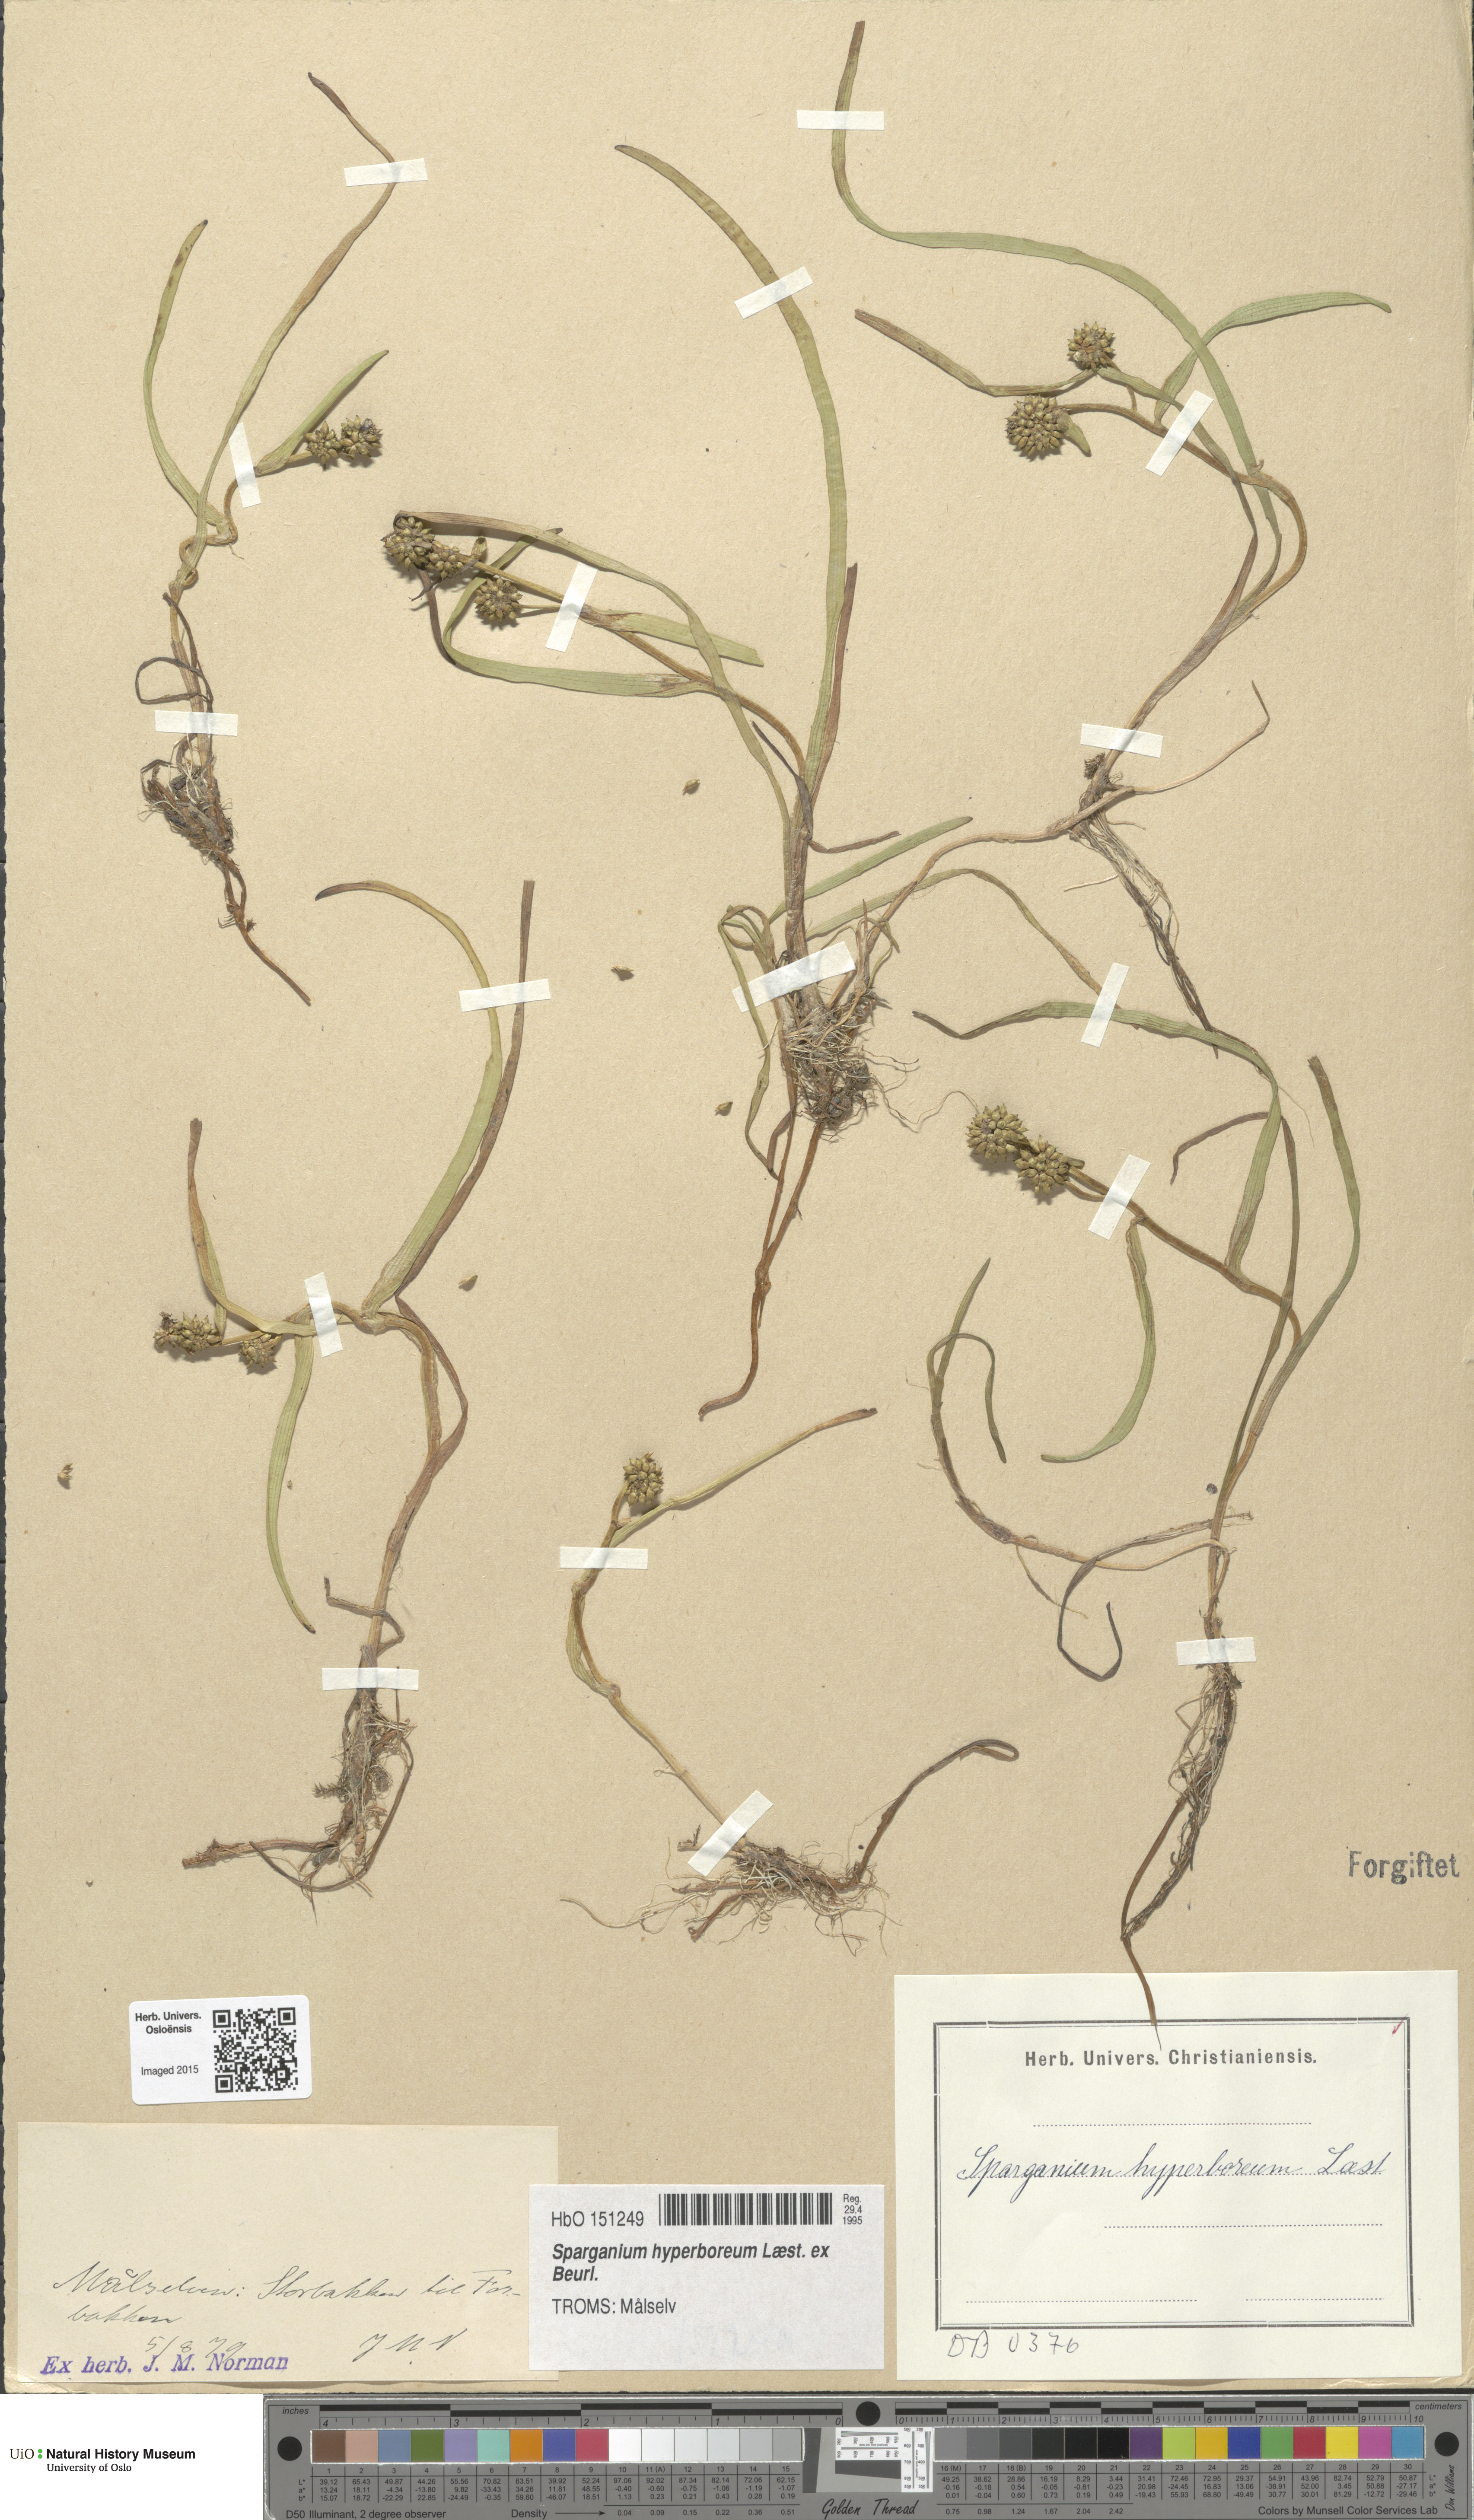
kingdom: Plantae
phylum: Tracheophyta
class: Liliopsida
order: Poales
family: Typhaceae
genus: Sparganium
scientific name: Sparganium hyperboreum
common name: Arctic burreed
